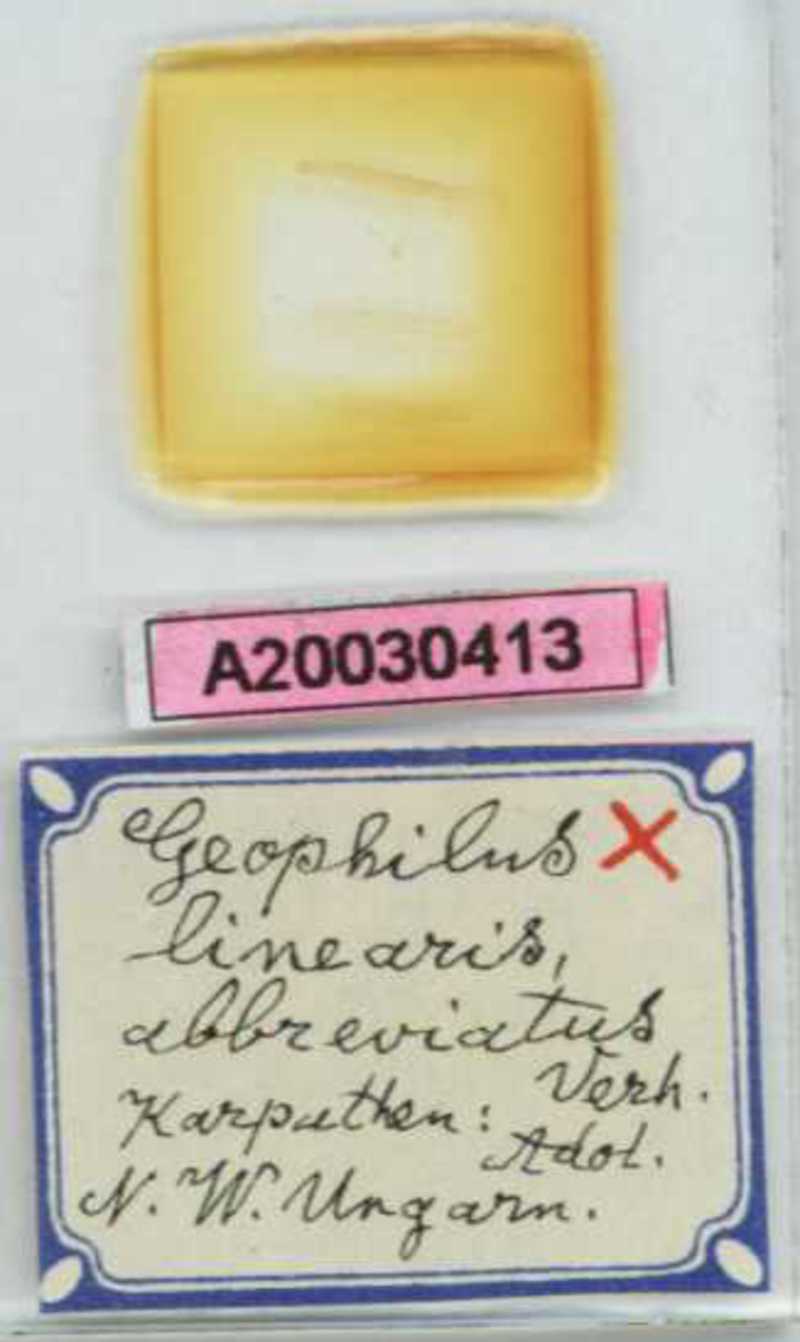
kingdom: Animalia
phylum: Arthropoda
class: Chilopoda
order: Geophilomorpha
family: Geophilidae
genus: Stenotaenia
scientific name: Stenotaenia sorrentina
